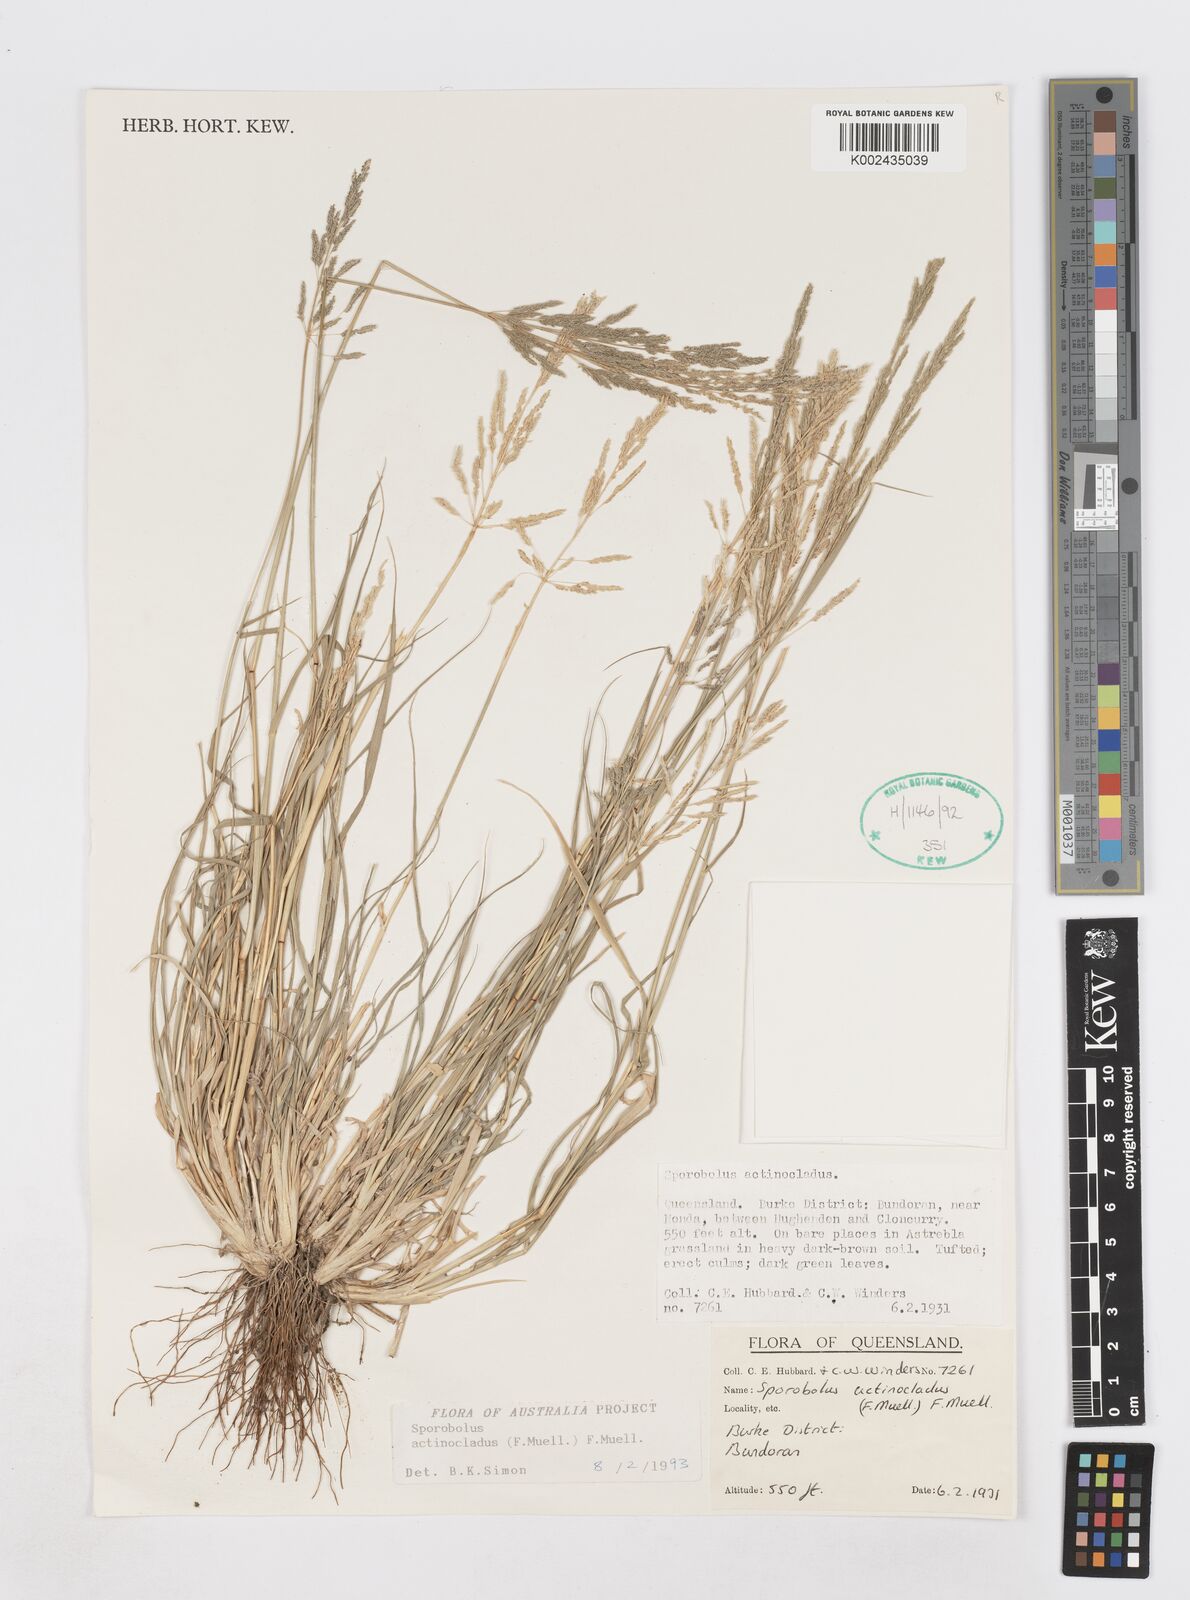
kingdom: Plantae
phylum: Tracheophyta
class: Liliopsida
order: Poales
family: Poaceae
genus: Sporobolus
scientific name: Sporobolus actinocladus
